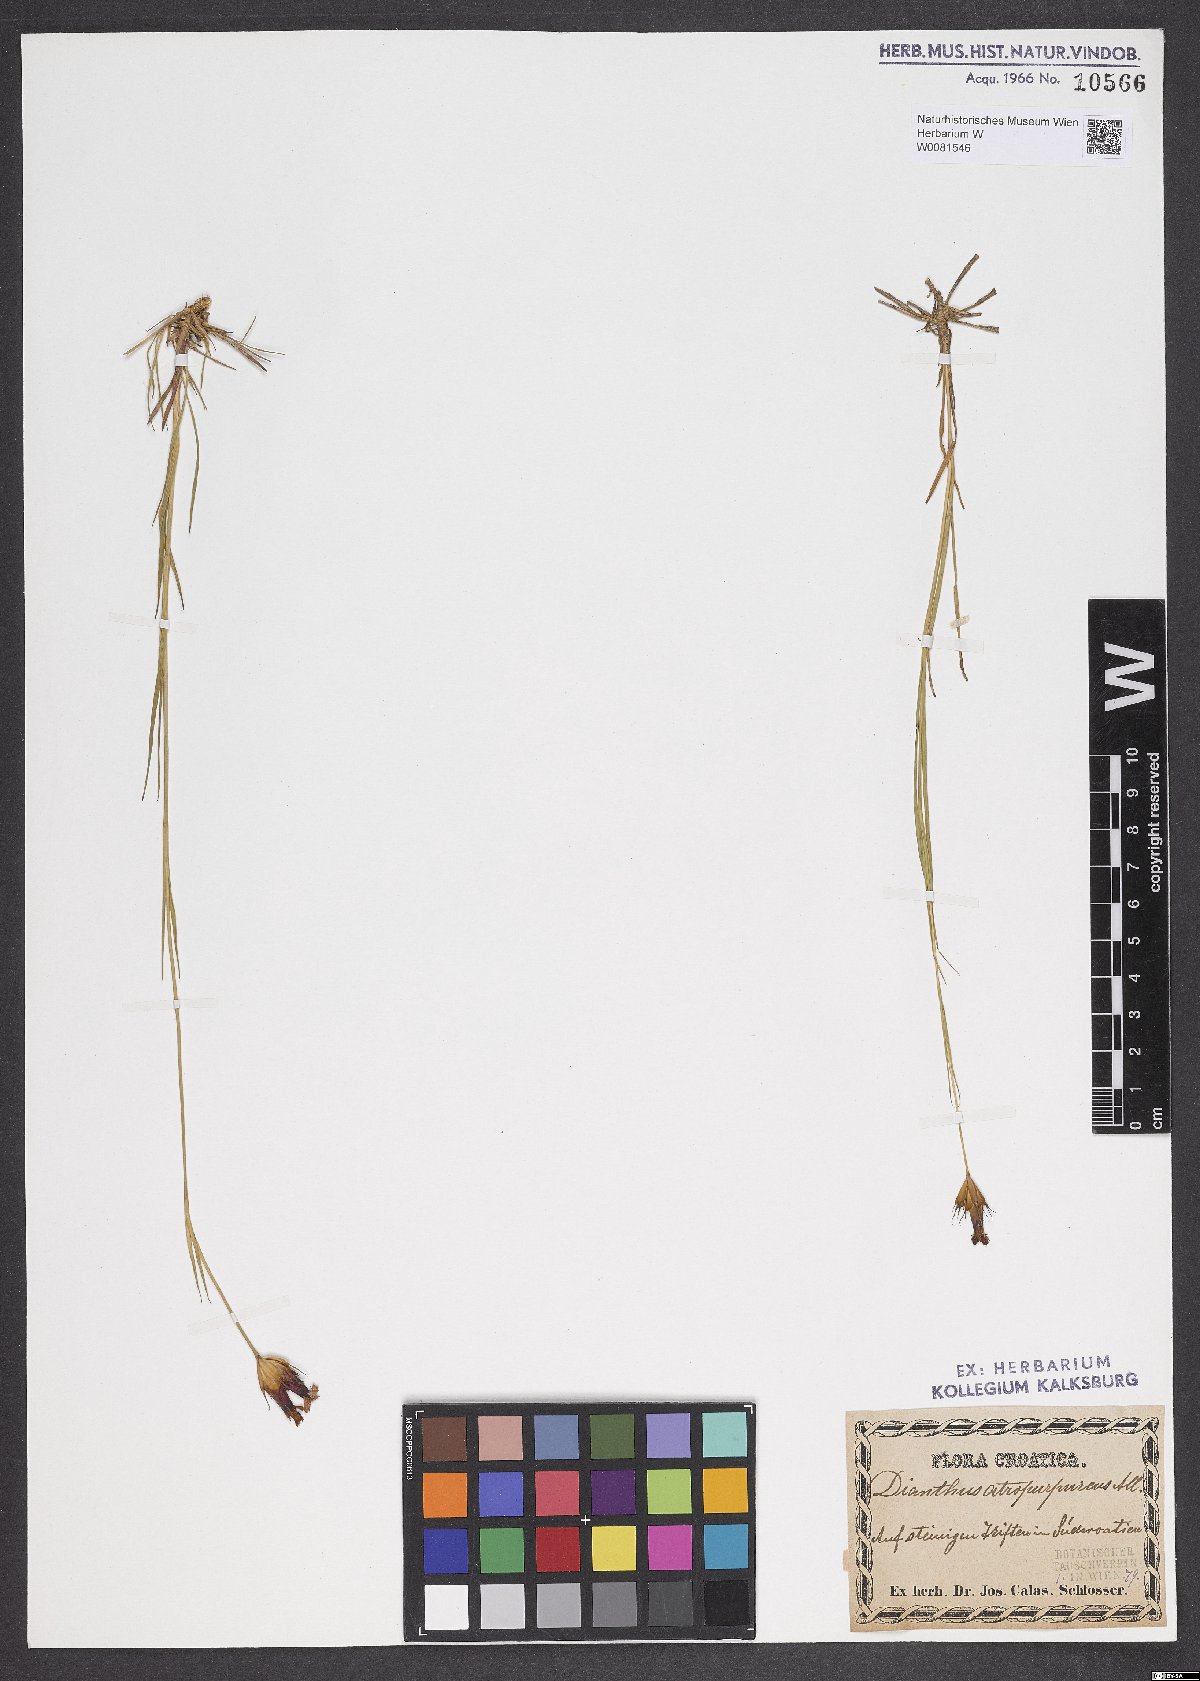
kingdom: Plantae
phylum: Tracheophyta
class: Magnoliopsida
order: Caryophyllales
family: Caryophyllaceae
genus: Dianthus
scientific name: Dianthus carthusianorum
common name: Carthusian pink
